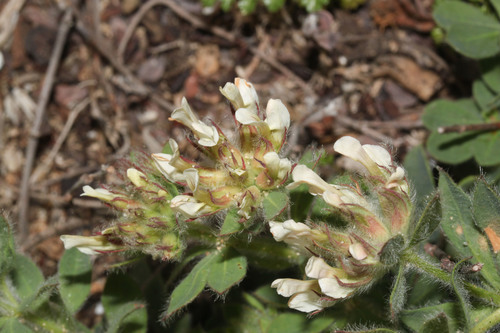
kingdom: Plantae
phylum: Tracheophyta
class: Magnoliopsida
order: Fabales
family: Fabaceae
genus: Lotus
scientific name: Lotus hirsutus
